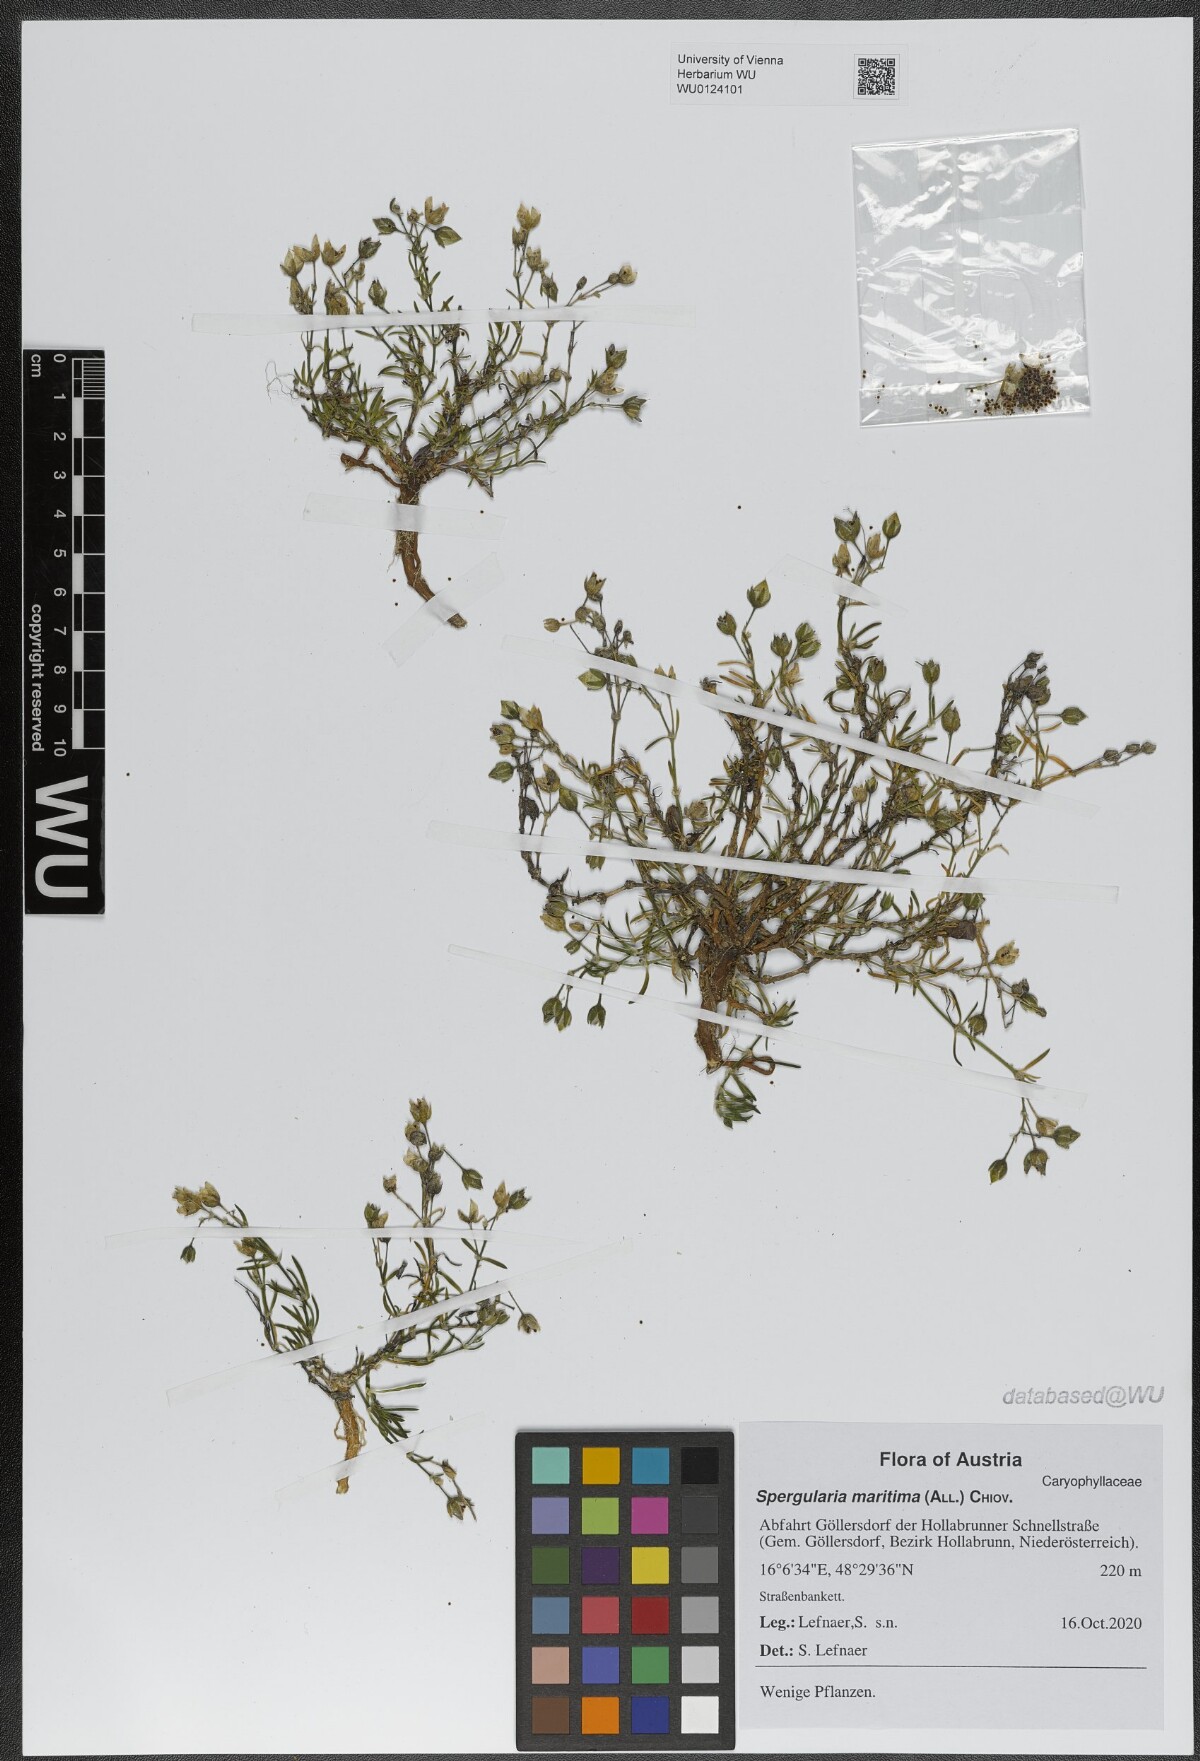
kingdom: Plantae
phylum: Tracheophyta
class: Magnoliopsida
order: Caryophyllales
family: Caryophyllaceae
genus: Spergularia
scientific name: Spergularia media
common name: Greater sea-spurrey
